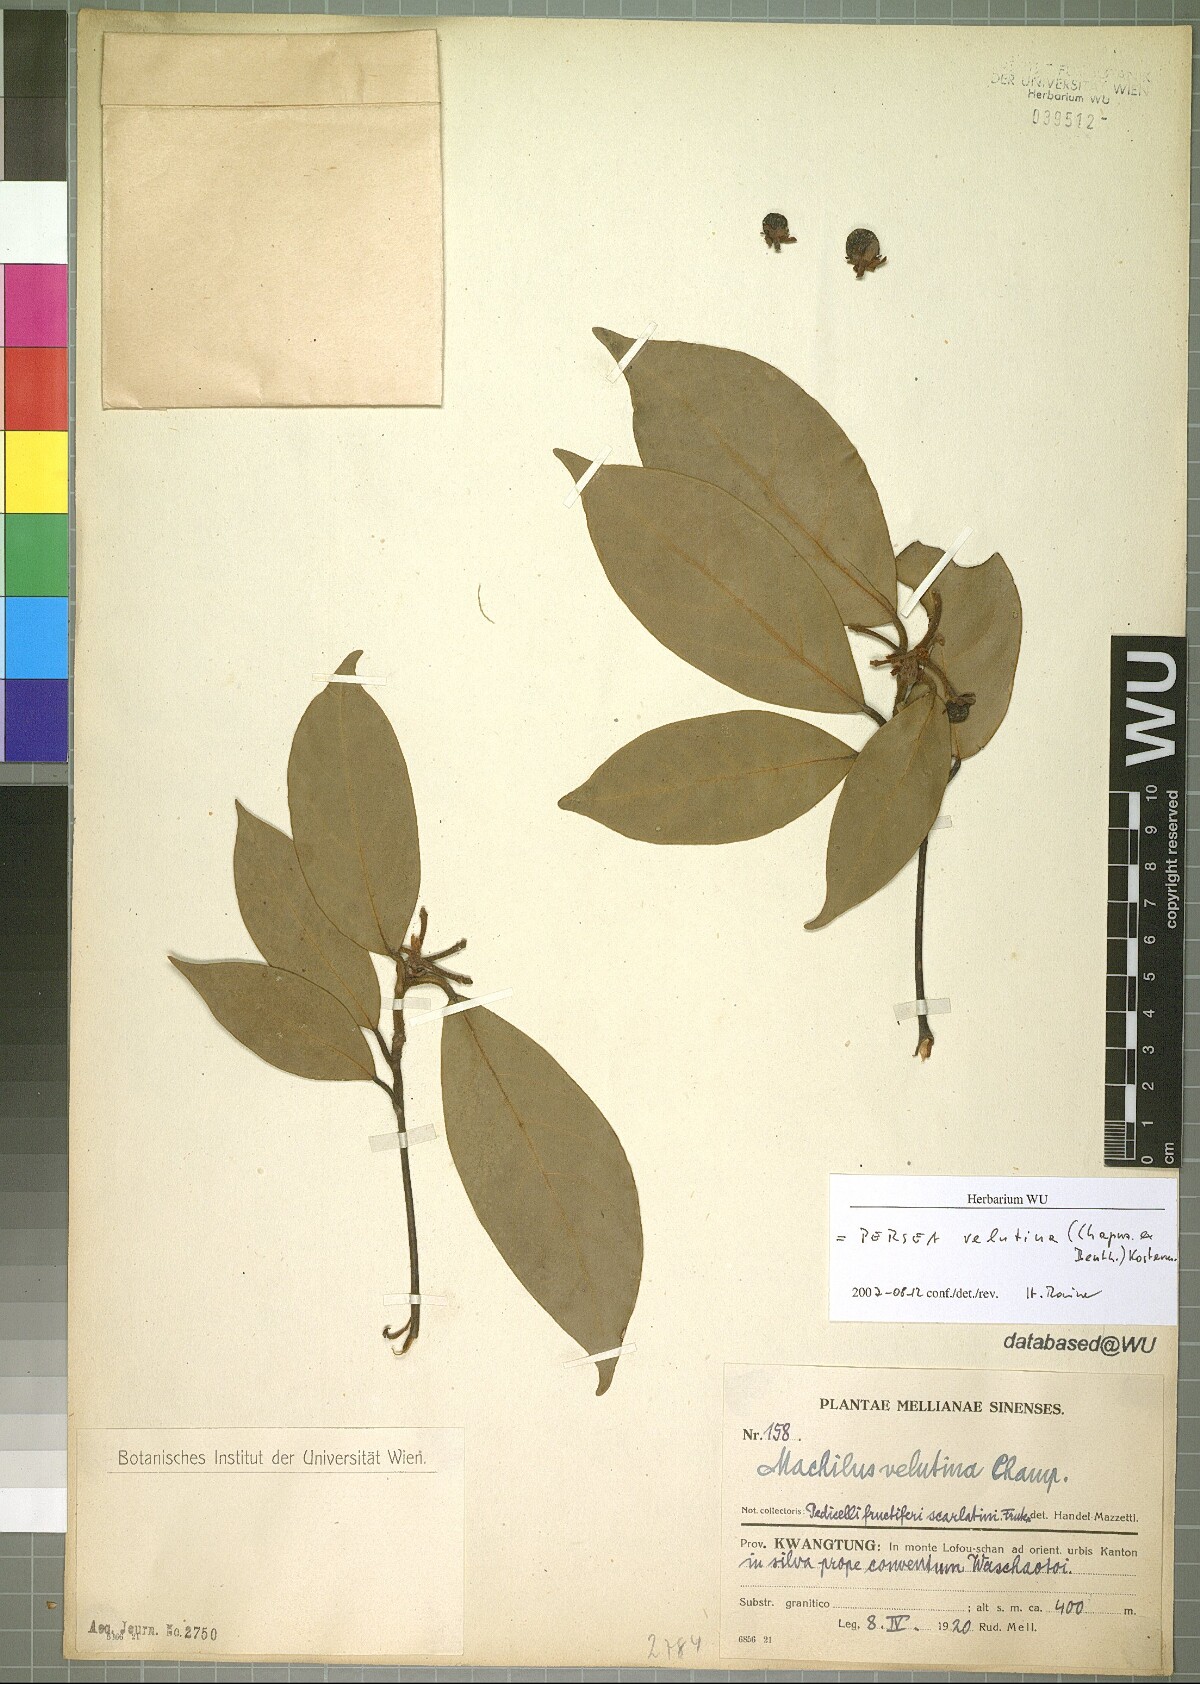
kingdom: Plantae
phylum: Tracheophyta
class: Magnoliopsida
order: Laurales
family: Lauraceae
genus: Machilus
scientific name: Machilus velutina
